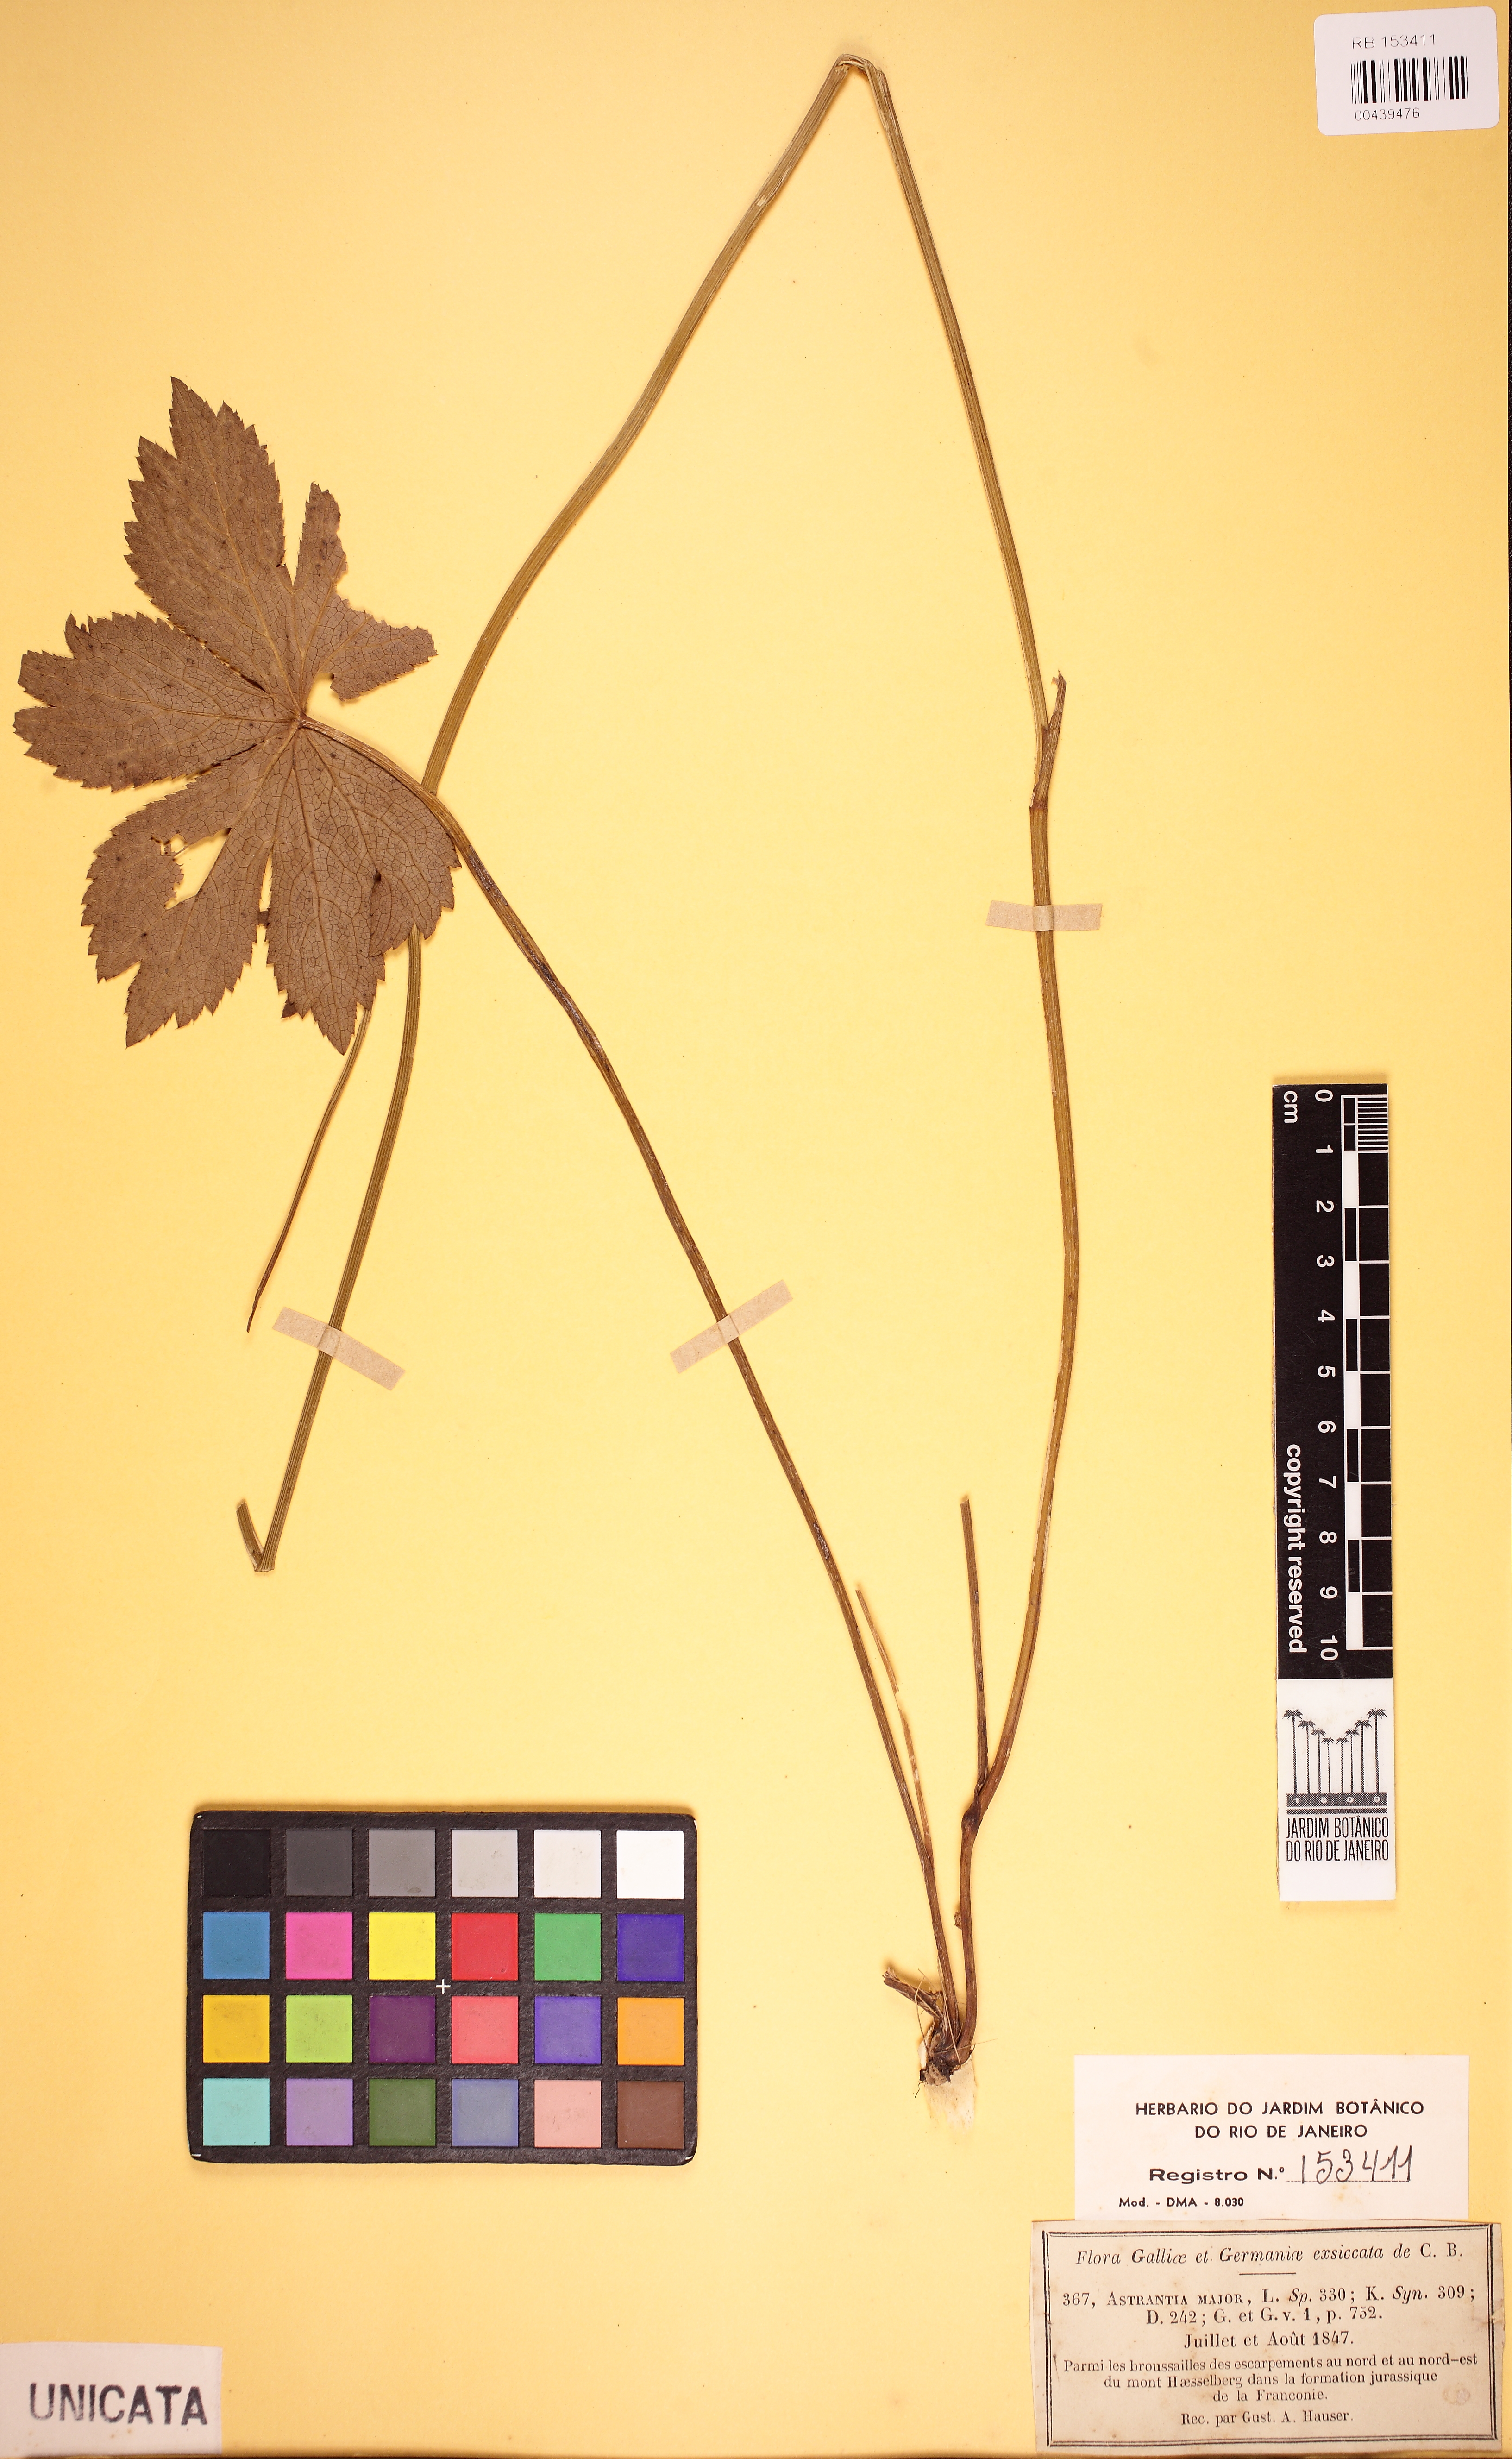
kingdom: Plantae
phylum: Tracheophyta
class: Magnoliopsida
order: Apiales
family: Apiaceae
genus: Astrantia
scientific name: Astrantia major
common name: Greater masterwort
